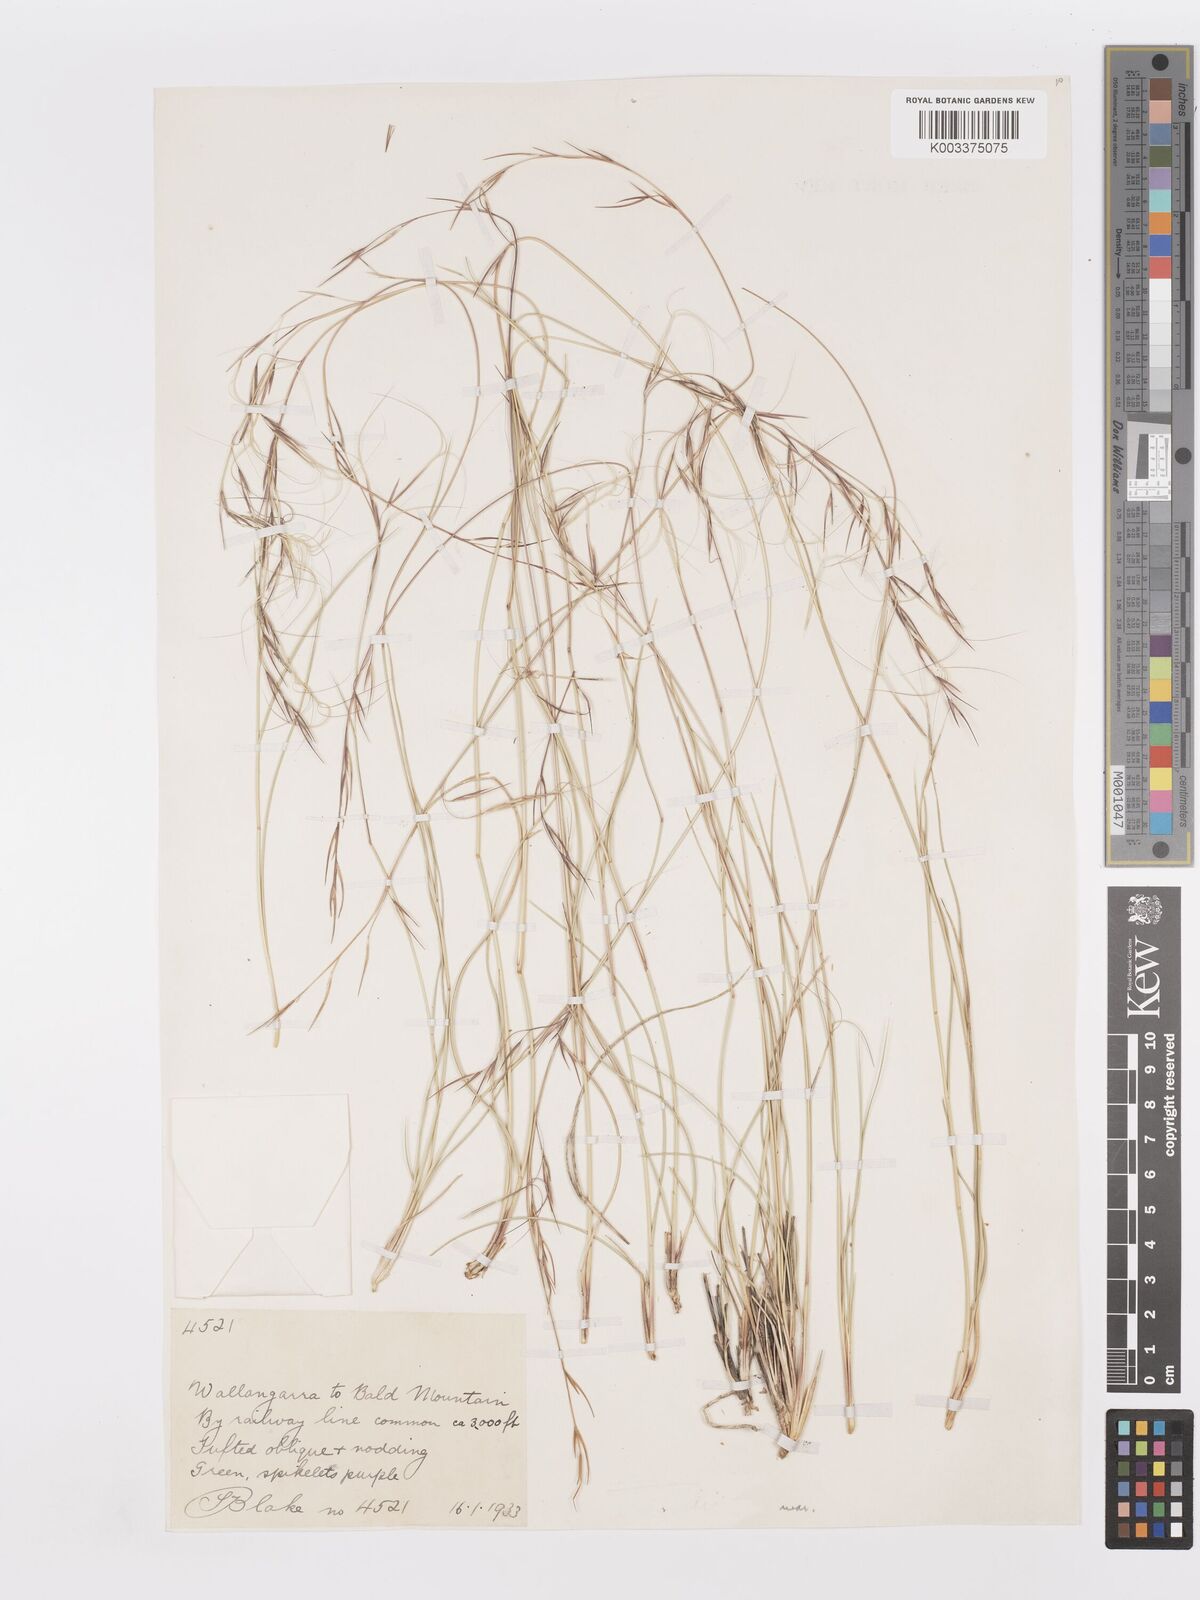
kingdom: Plantae
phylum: Tracheophyta
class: Liliopsida
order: Poales
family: Poaceae
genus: Aristida
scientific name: Aristida warburgii
